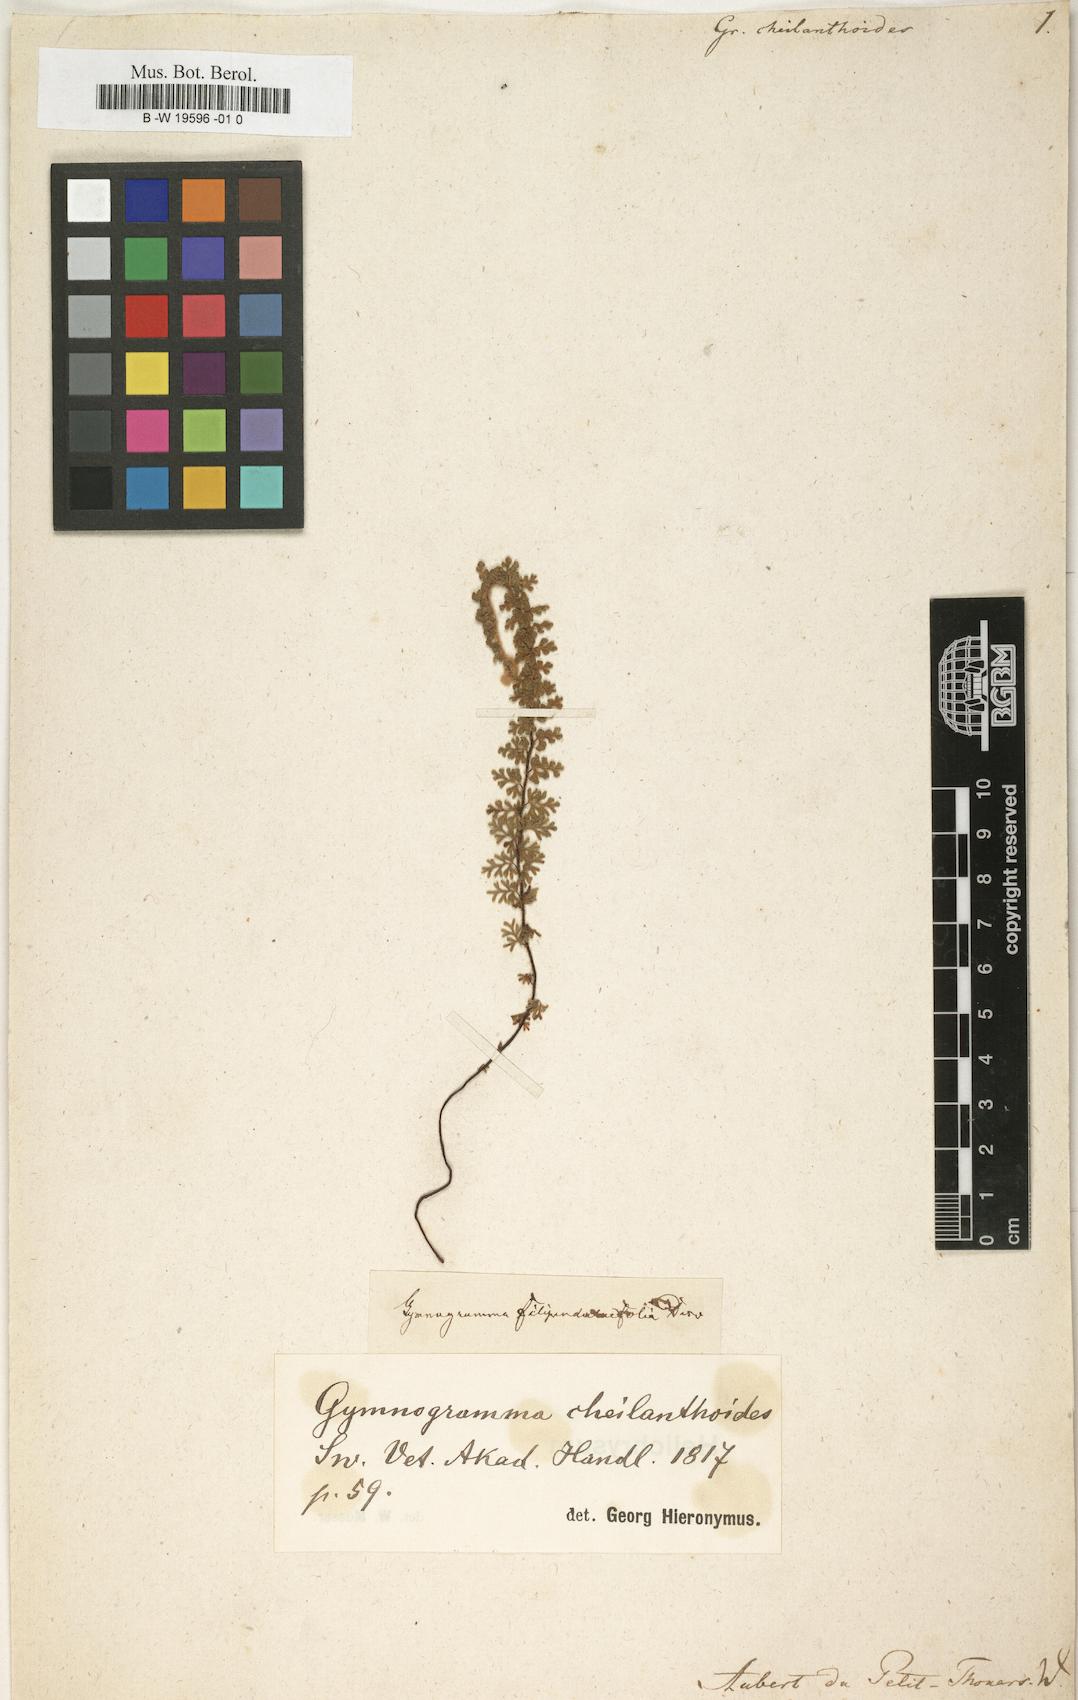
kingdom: Plantae
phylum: Tracheophyta
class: Polypodiopsida
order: Polypodiales
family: Pteridaceae
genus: Jamesonia
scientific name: Jamesonia cheilanthoides
